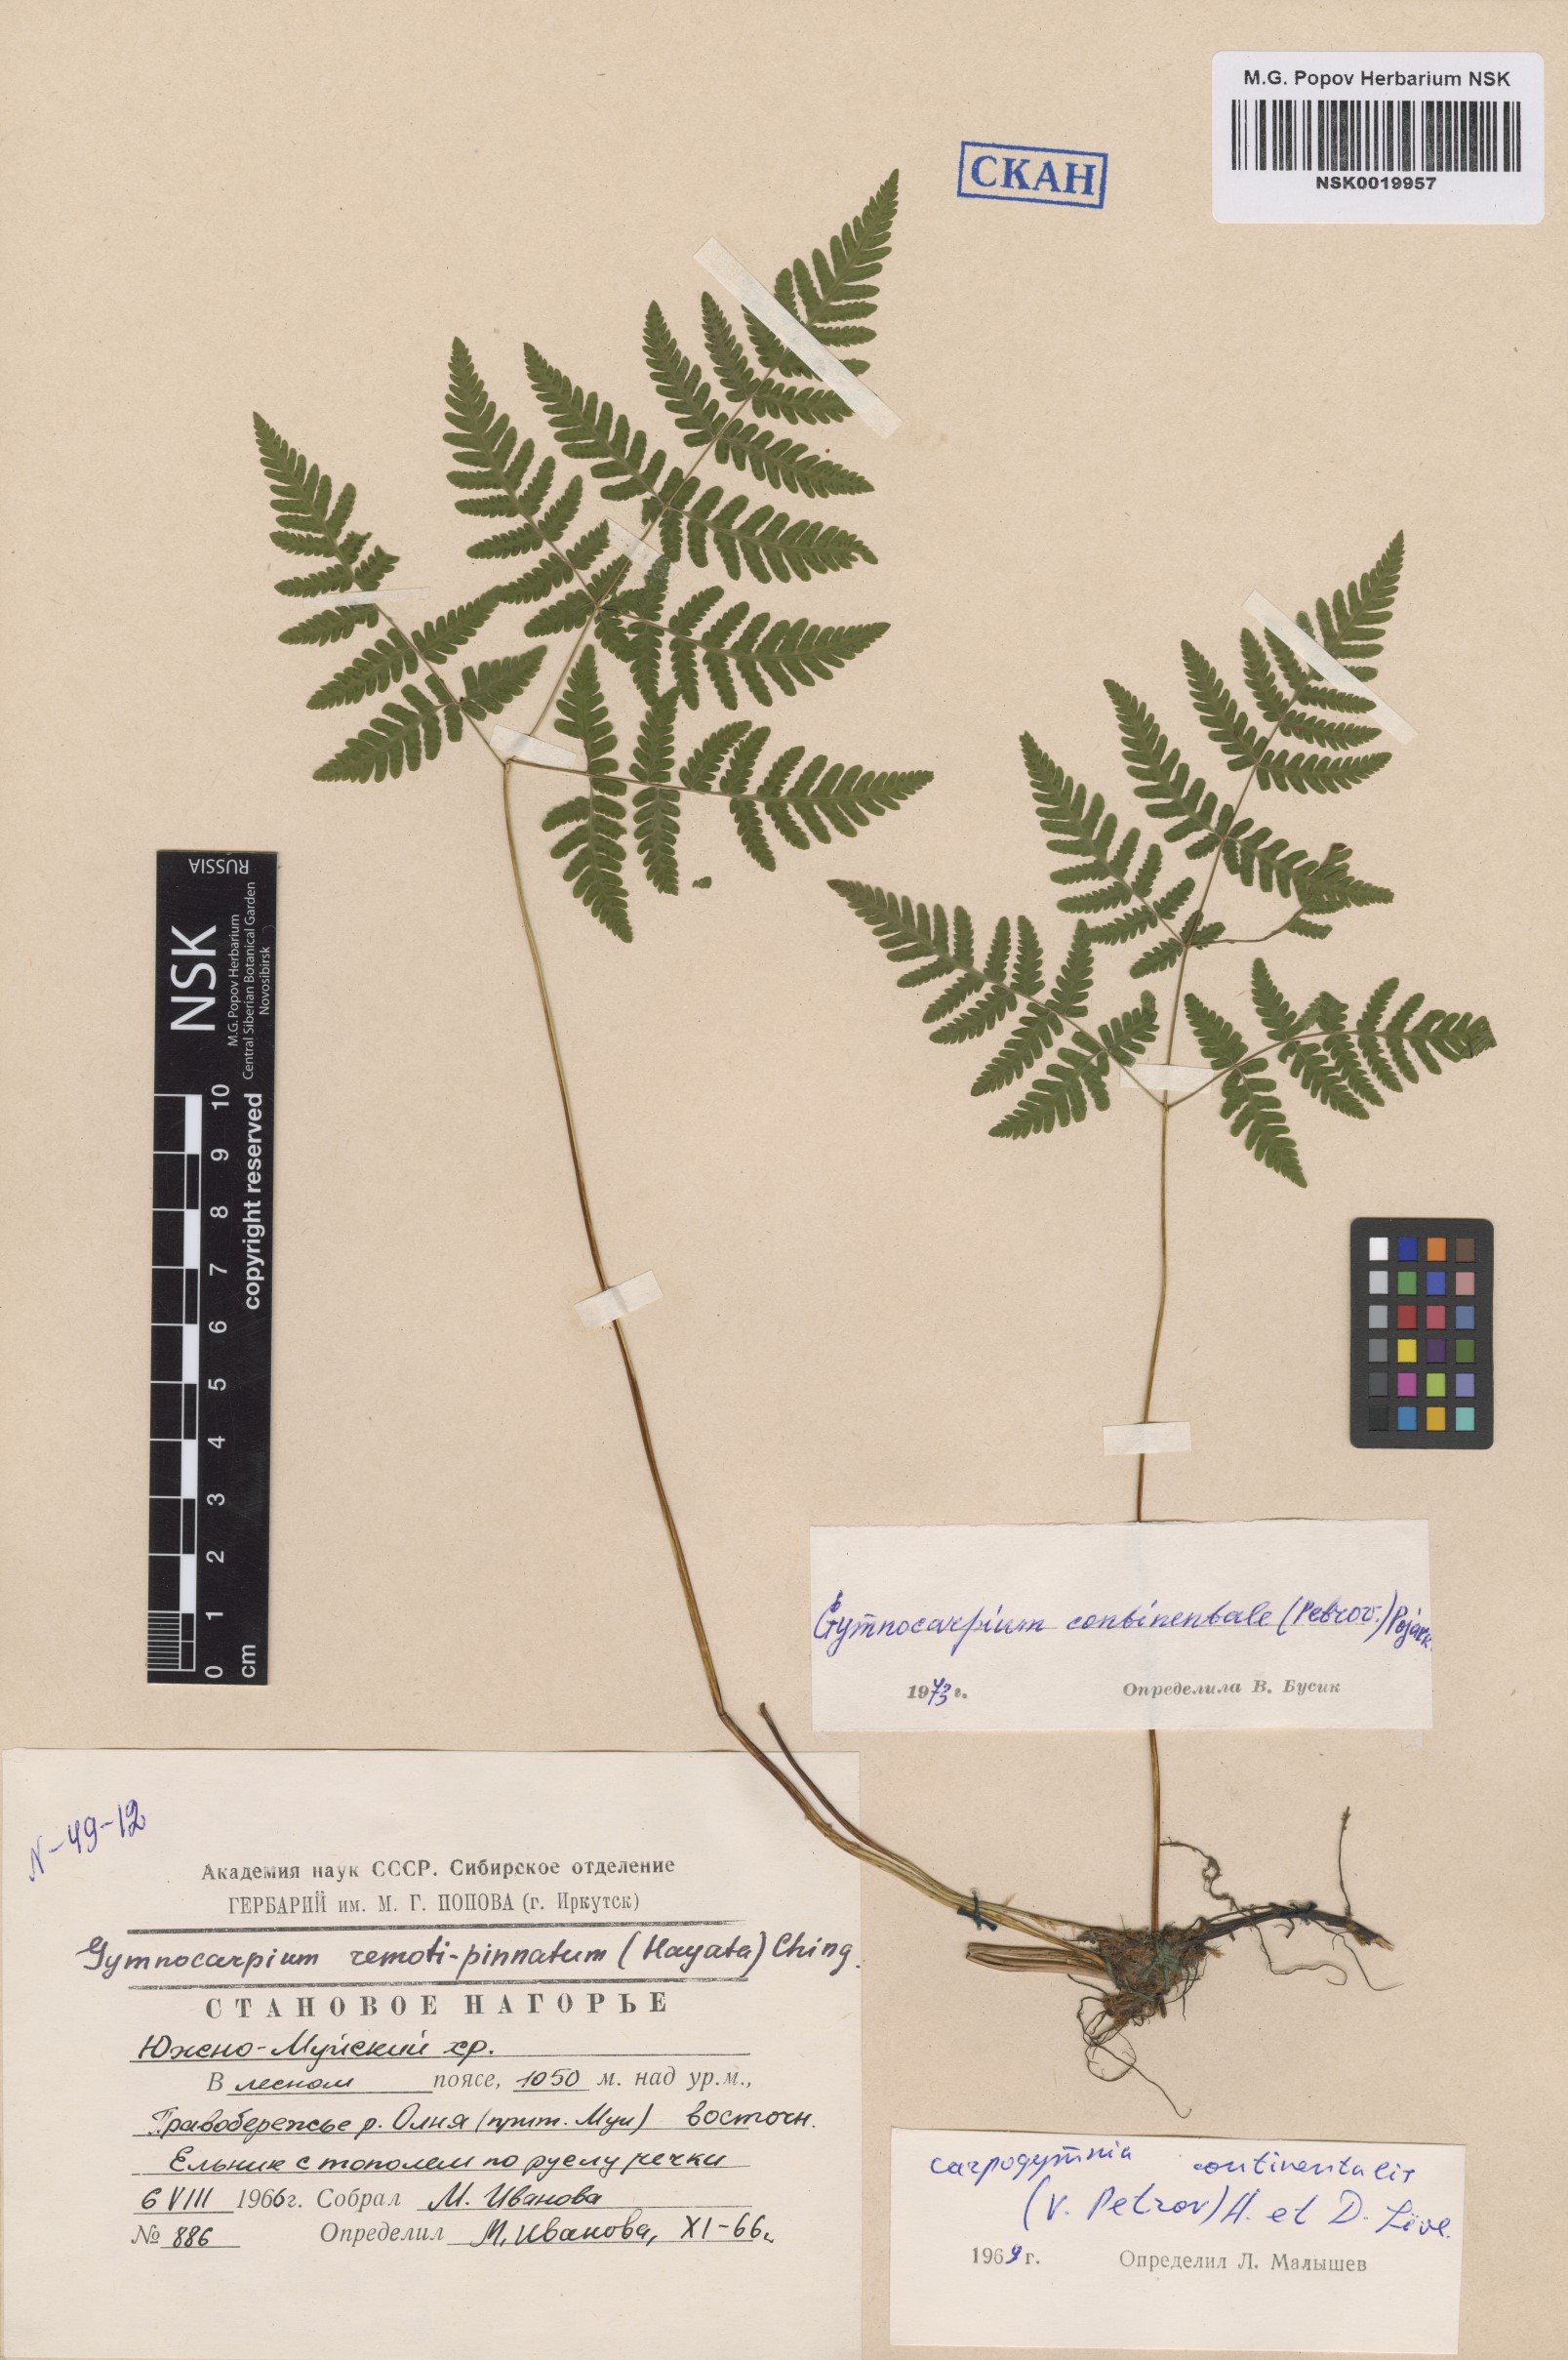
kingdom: Plantae
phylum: Tracheophyta
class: Polypodiopsida
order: Polypodiales
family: Cystopteridaceae
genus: Gymnocarpium
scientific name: Gymnocarpium continentale
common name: Asian oak fern
